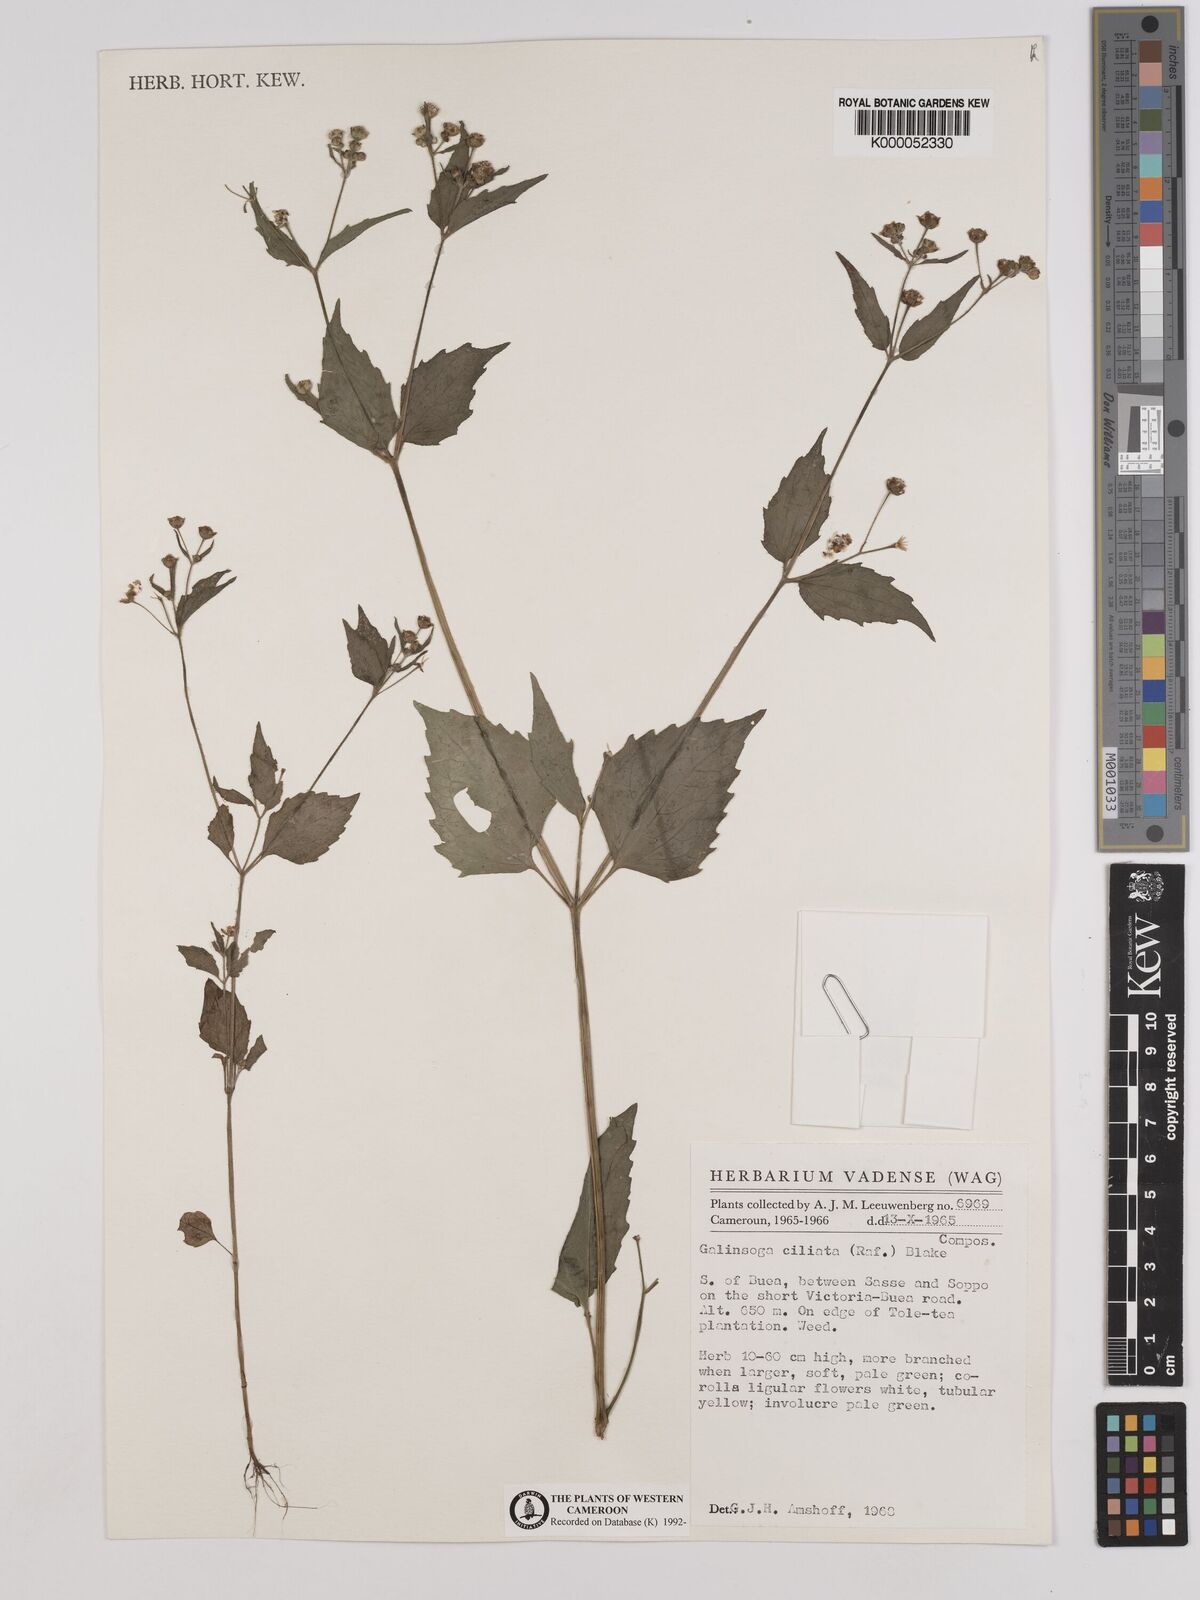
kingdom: Plantae
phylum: Tracheophyta
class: Magnoliopsida
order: Asterales
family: Asteraceae
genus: Galinsoga
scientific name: Galinsoga quadriradiata
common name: Shaggy soldier
